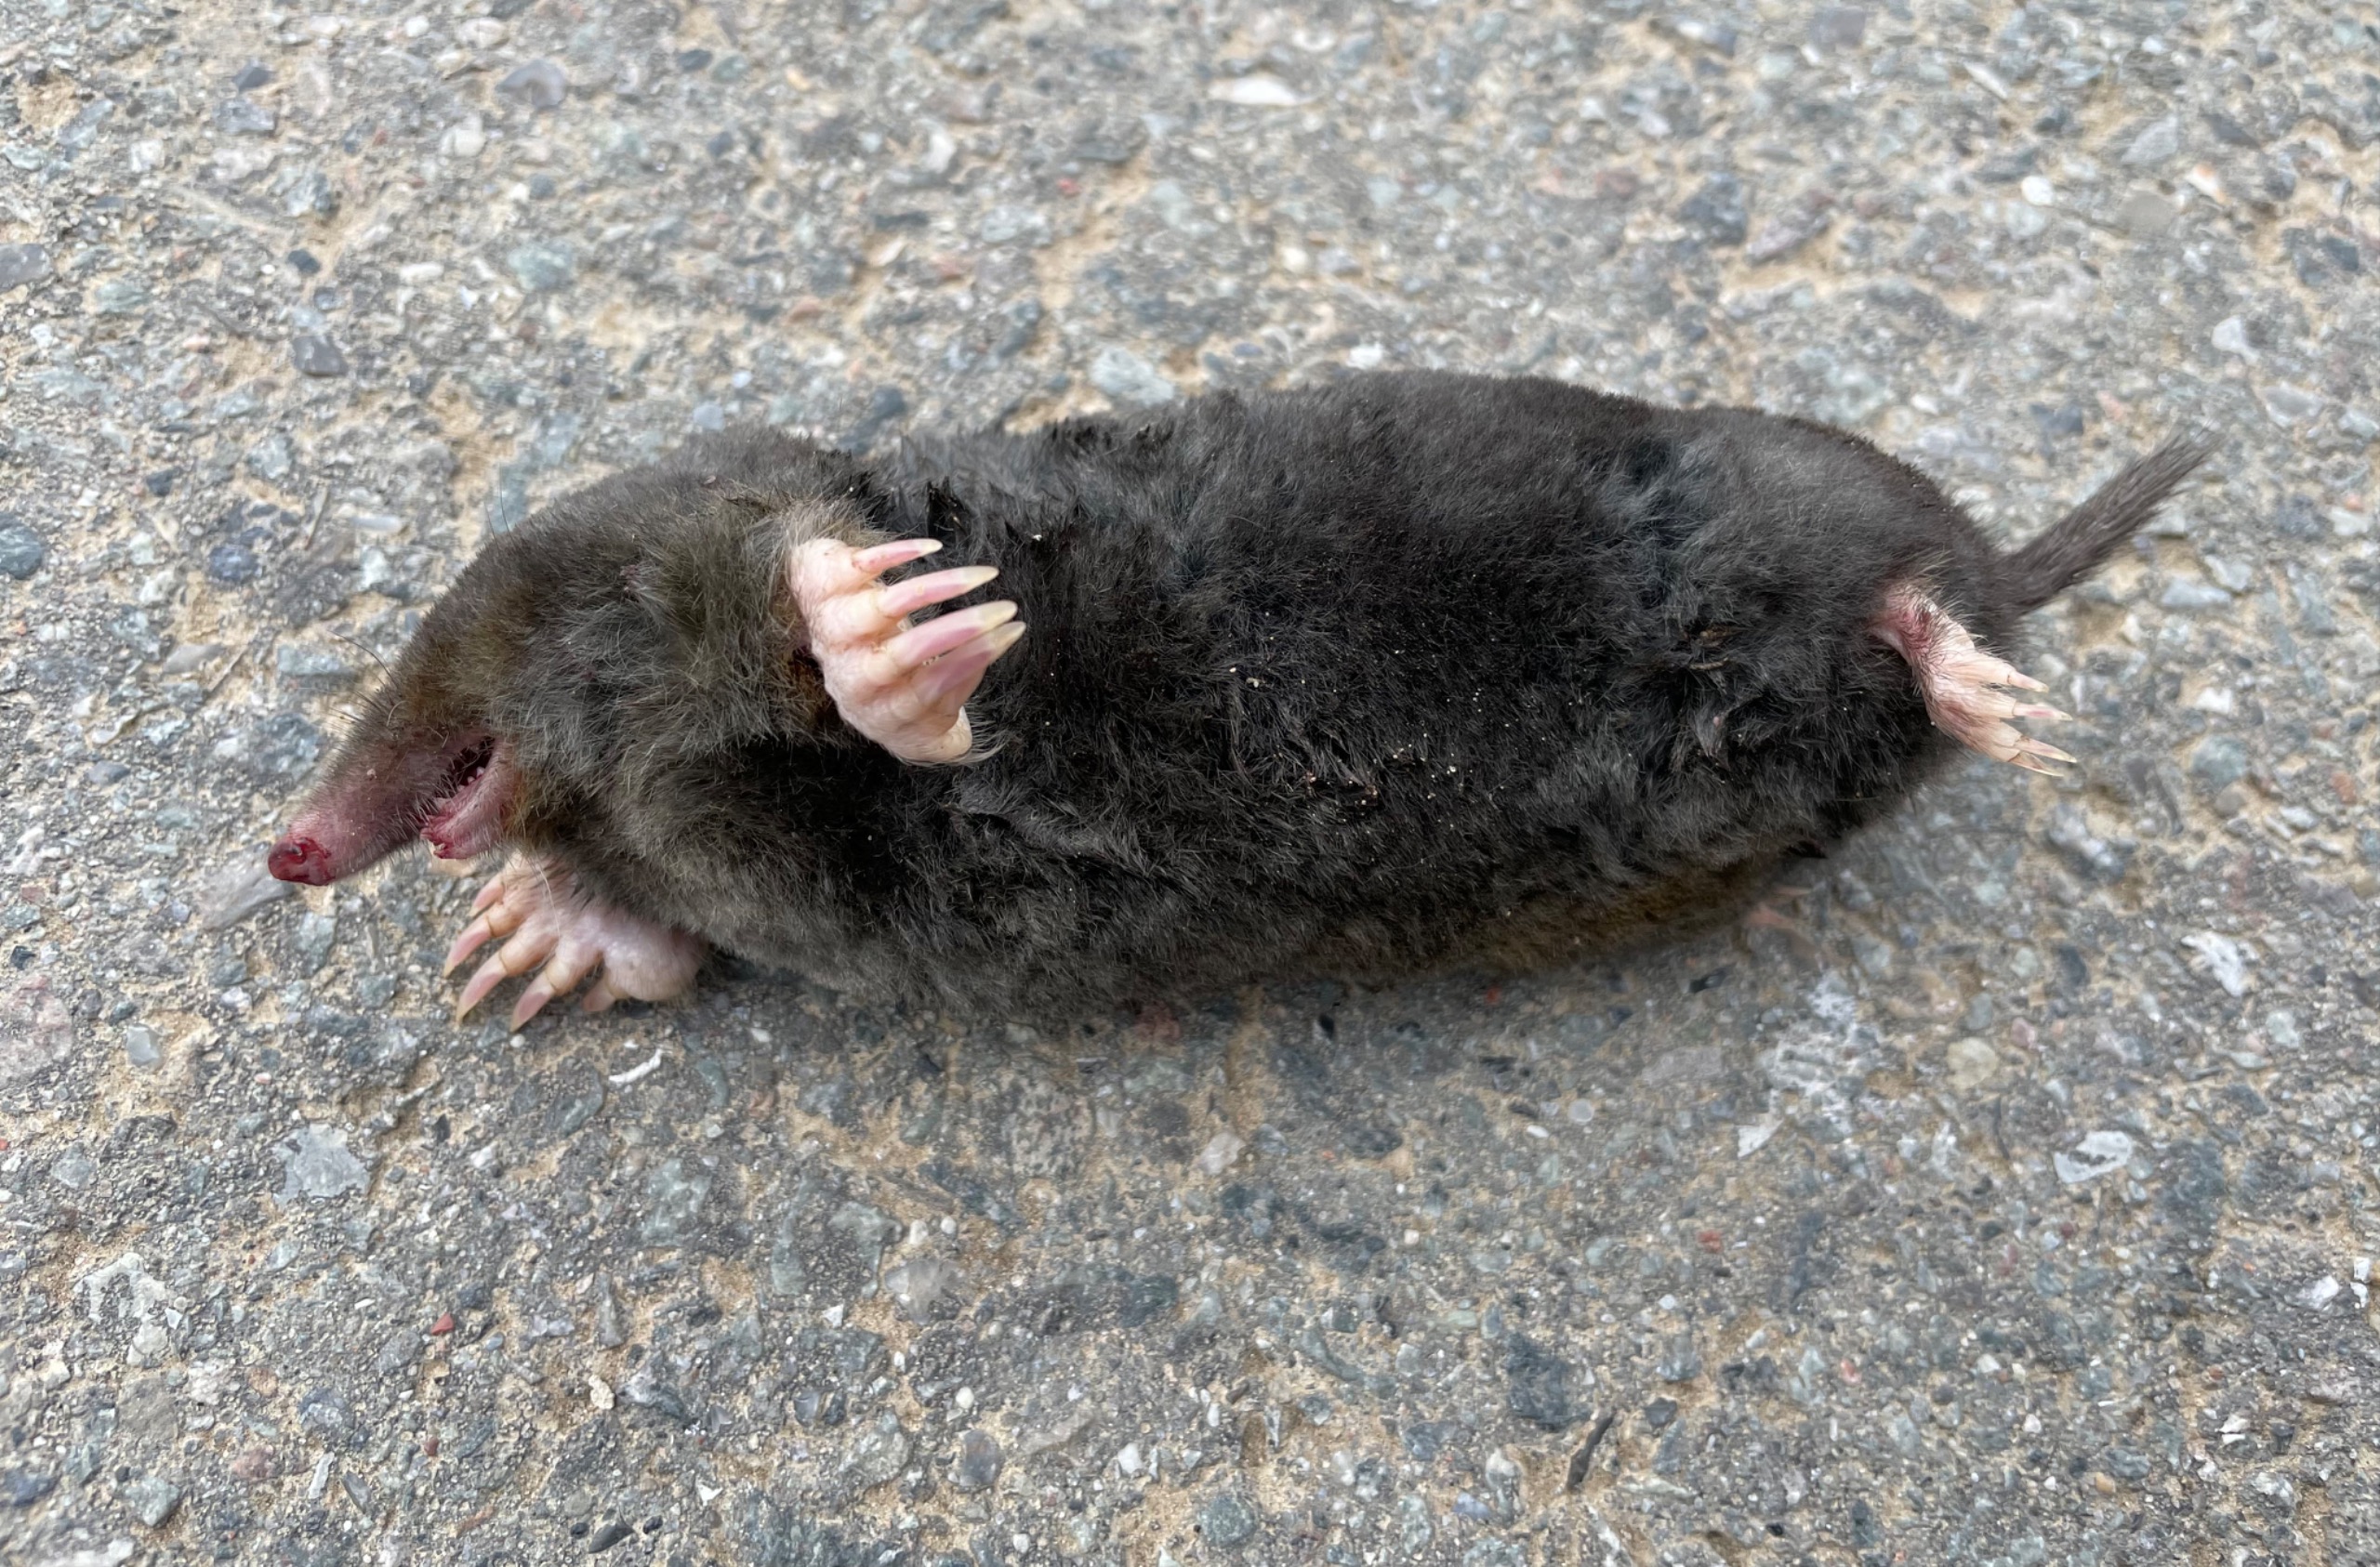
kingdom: Animalia
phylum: Chordata
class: Mammalia
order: Soricomorpha
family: Talpidae
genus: Talpa
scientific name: Talpa europaea
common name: Muldvarp
